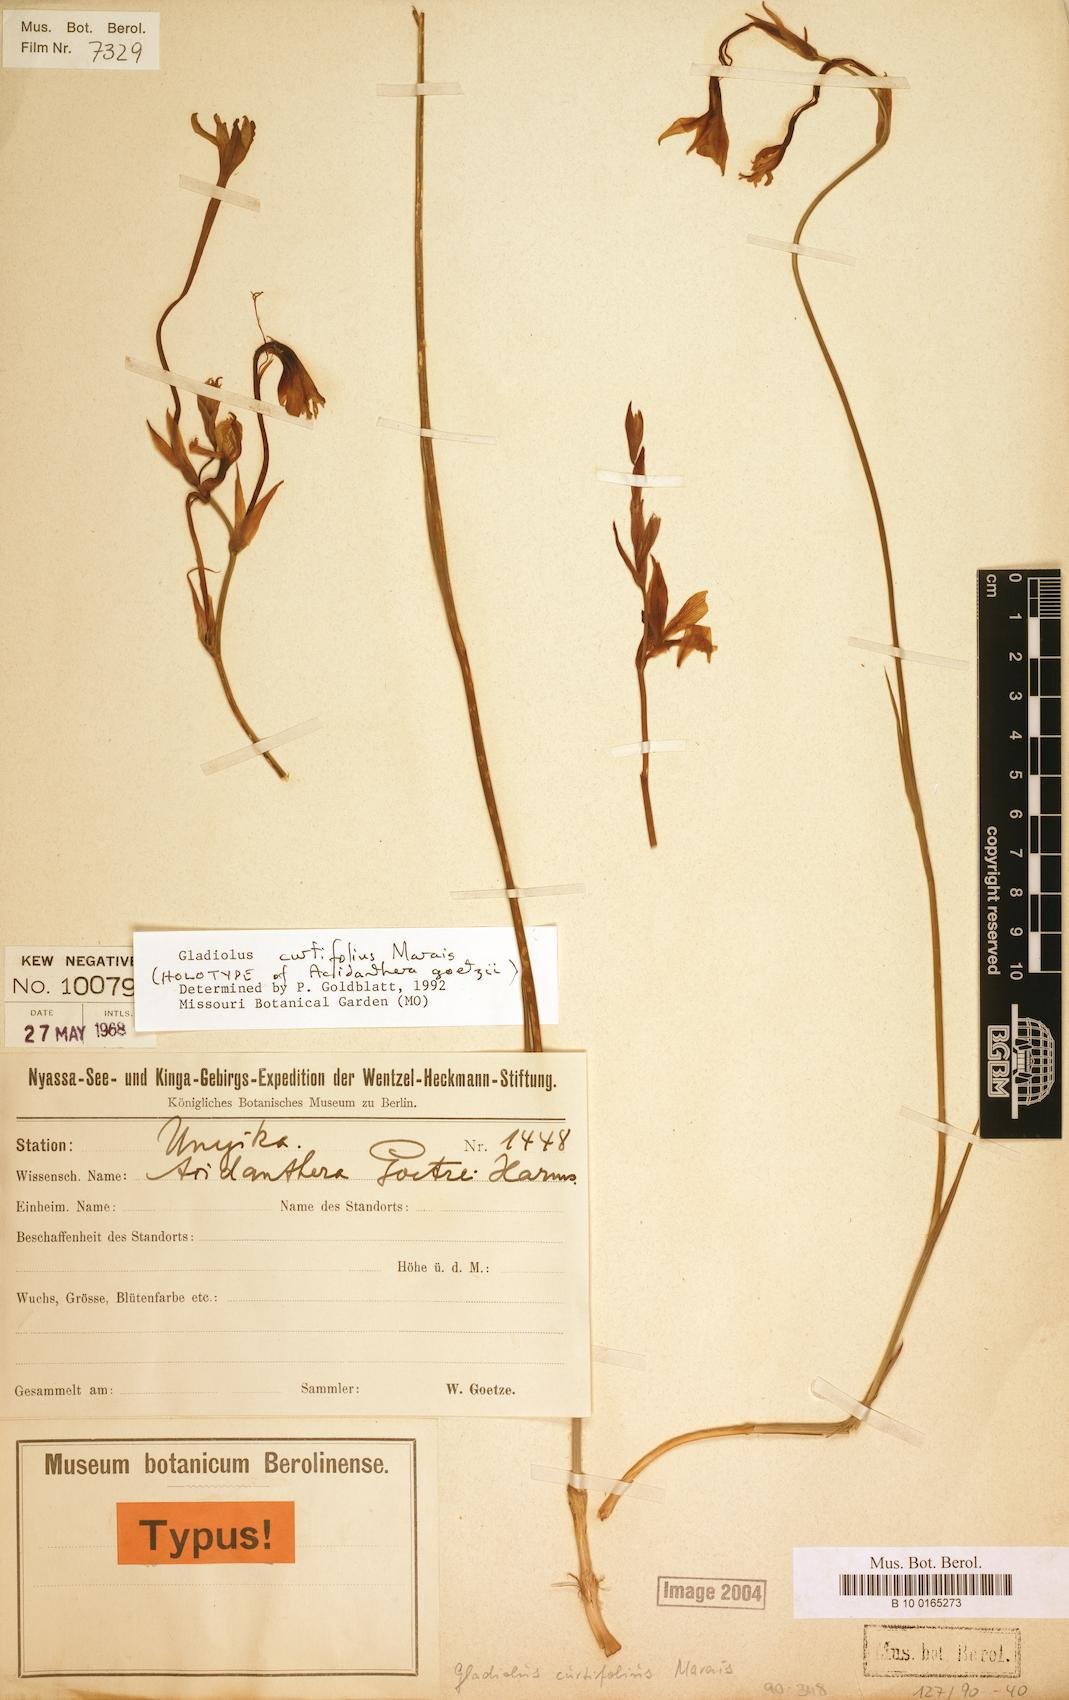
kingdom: Plantae
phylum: Tracheophyta
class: Liliopsida
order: Asparagales
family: Iridaceae
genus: Gladiolus
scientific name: Gladiolus curtifolius
